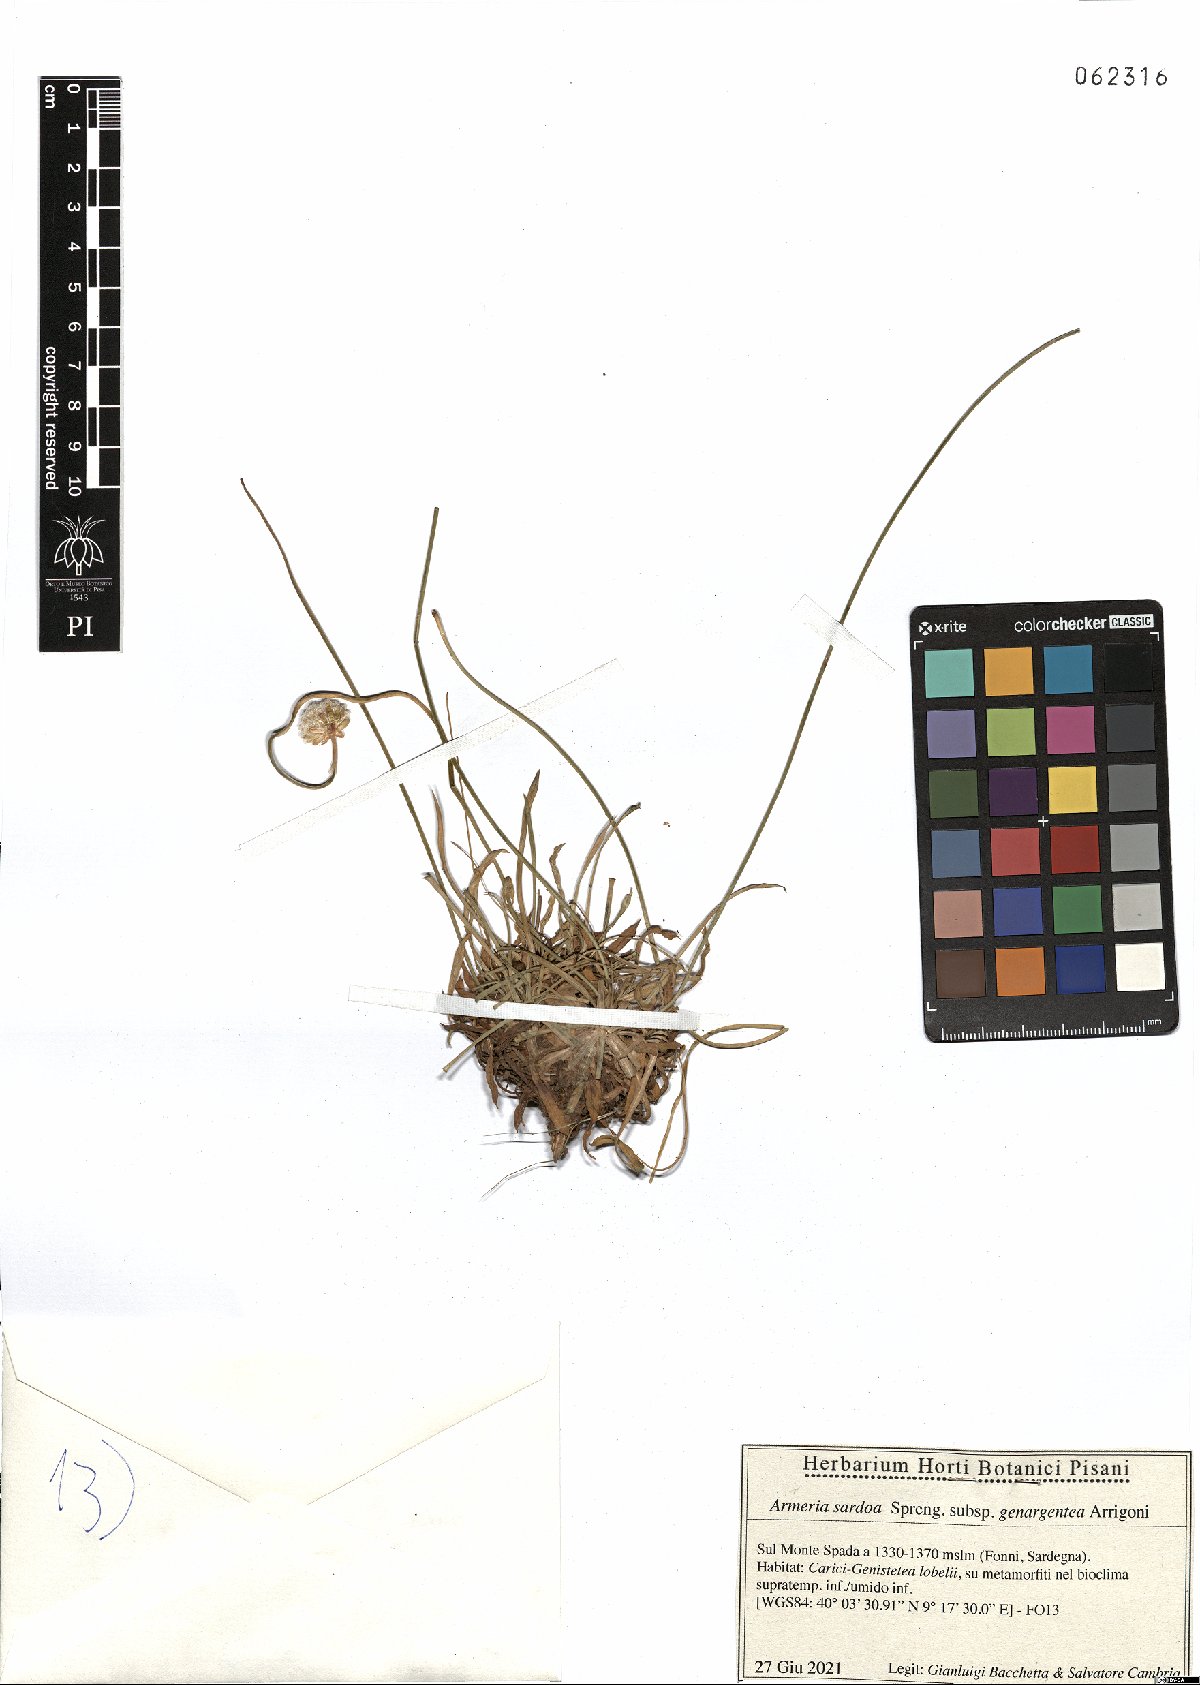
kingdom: Plantae
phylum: Tracheophyta
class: Magnoliopsida
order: Caryophyllales
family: Plumbaginaceae
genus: Armeria
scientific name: Armeria sardoa
